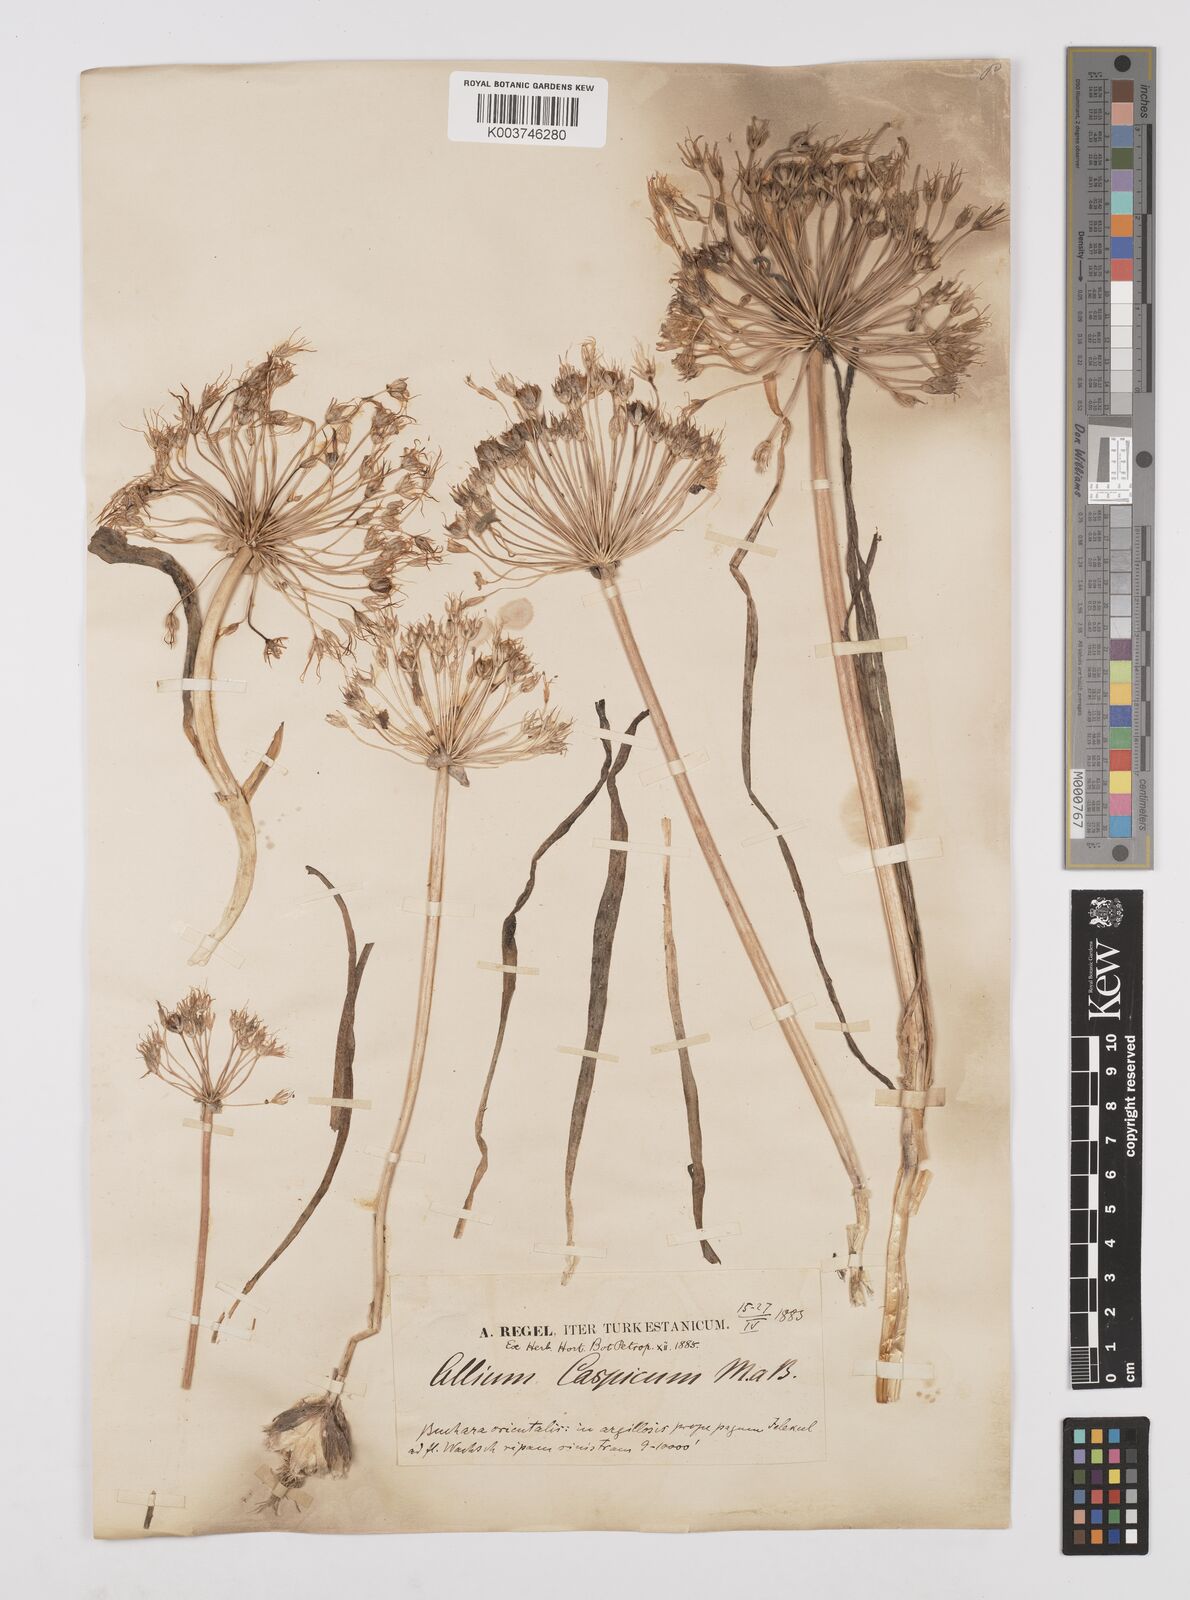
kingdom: Plantae
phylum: Tracheophyta
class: Liliopsida
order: Asparagales
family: Amaryllidaceae
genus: Allium
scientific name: Allium caspium
